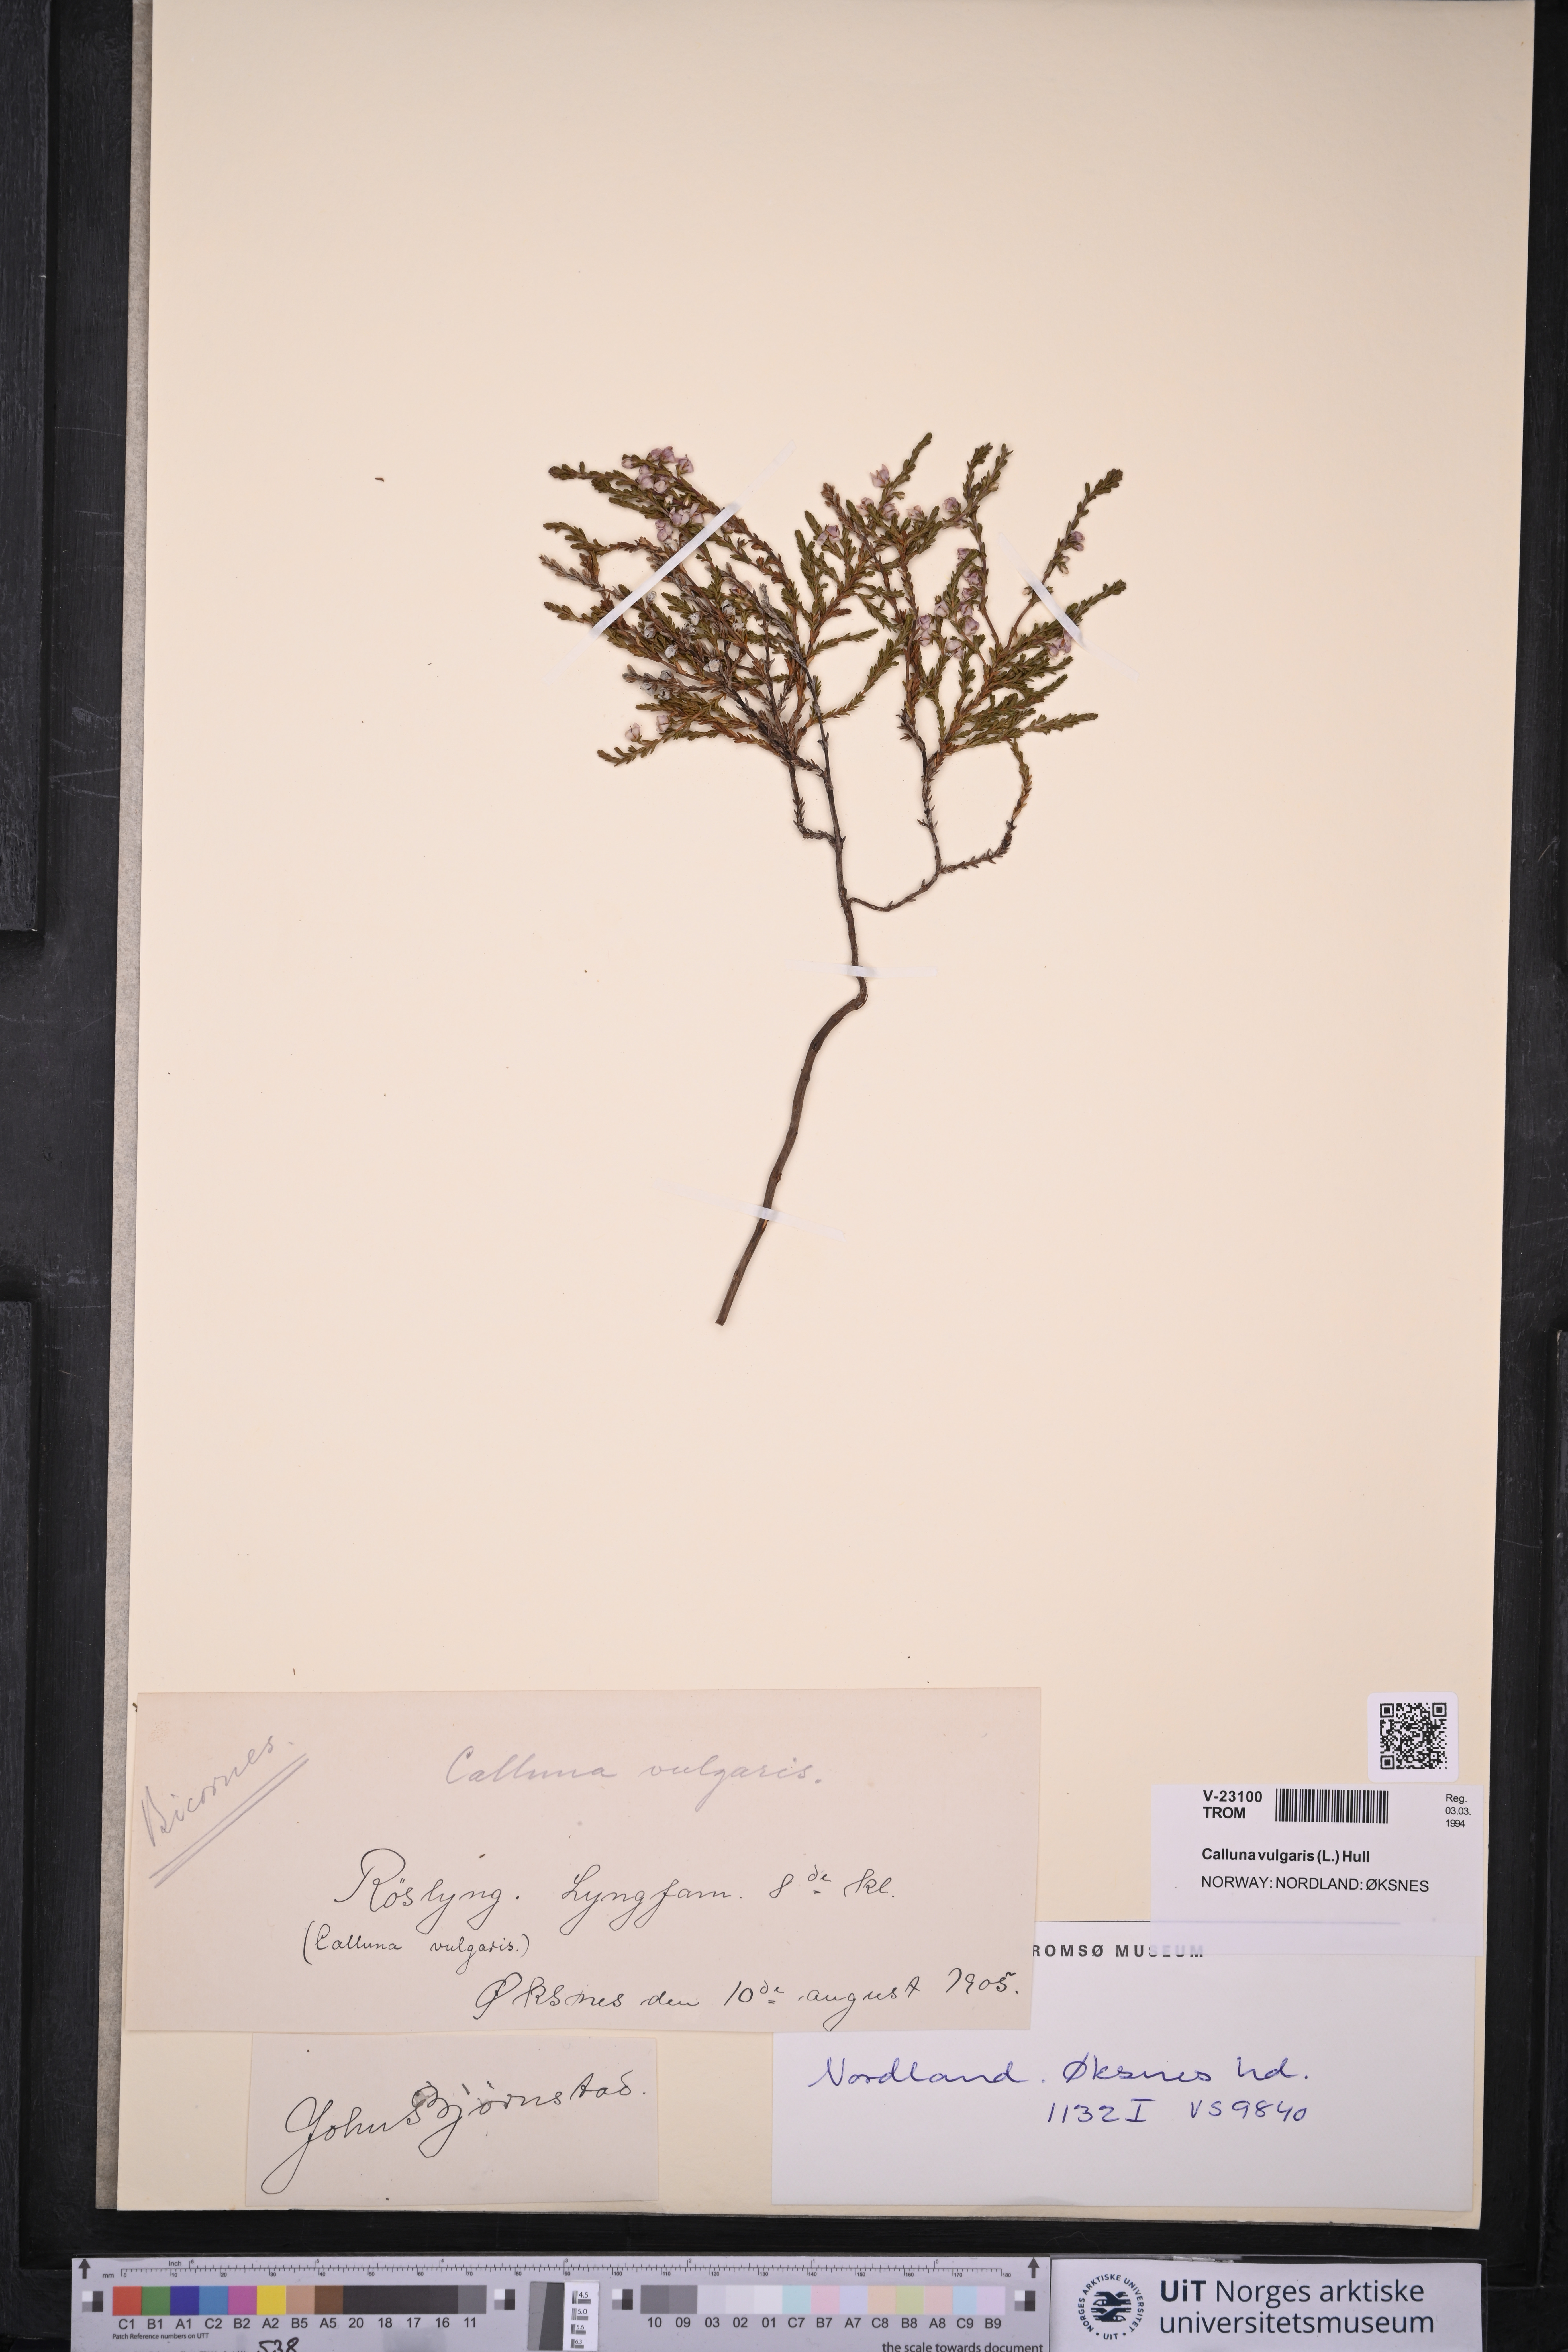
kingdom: Plantae
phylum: Tracheophyta
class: Magnoliopsida
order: Ericales
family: Ericaceae
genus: Calluna
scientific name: Calluna vulgaris
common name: Heather
